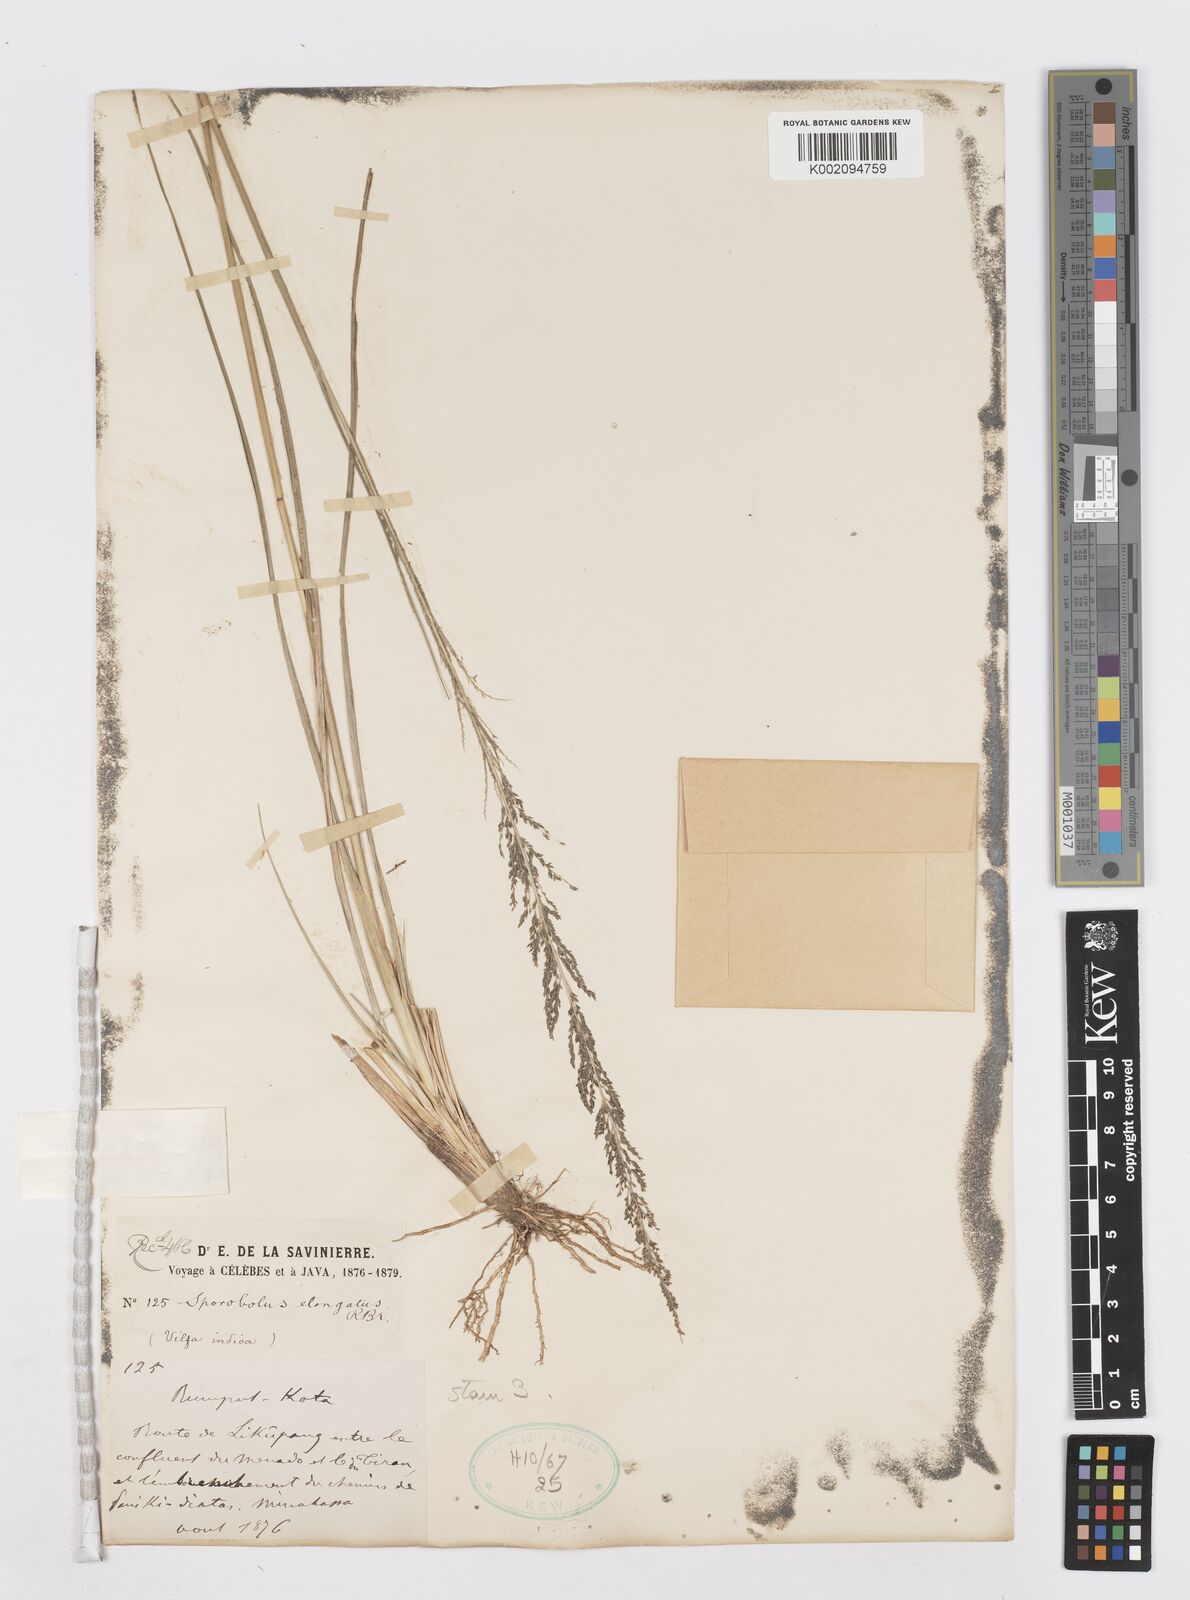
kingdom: Plantae
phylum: Tracheophyta
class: Liliopsida
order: Poales
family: Poaceae
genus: Sporobolus
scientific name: Sporobolus fertilis
